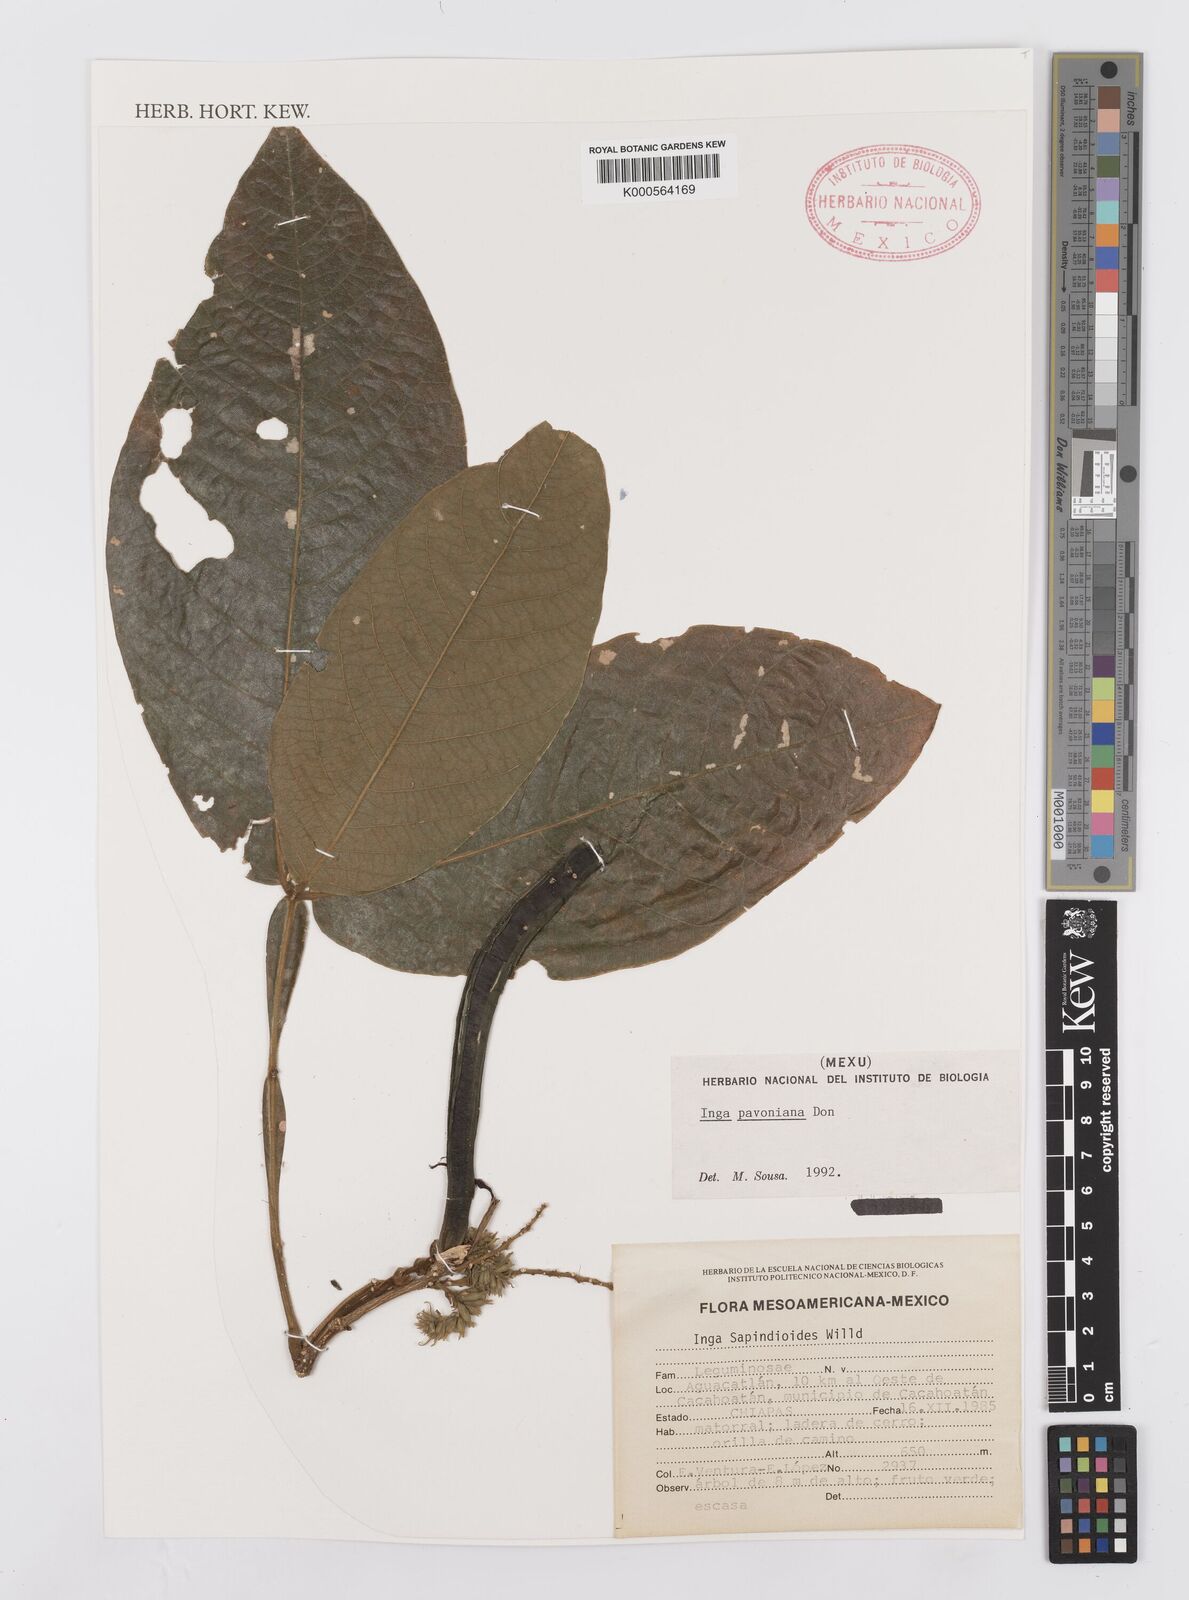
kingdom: Plantae
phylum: Tracheophyta
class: Magnoliopsida
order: Fabales
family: Fabaceae
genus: Inga
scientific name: Inga sapindoides
